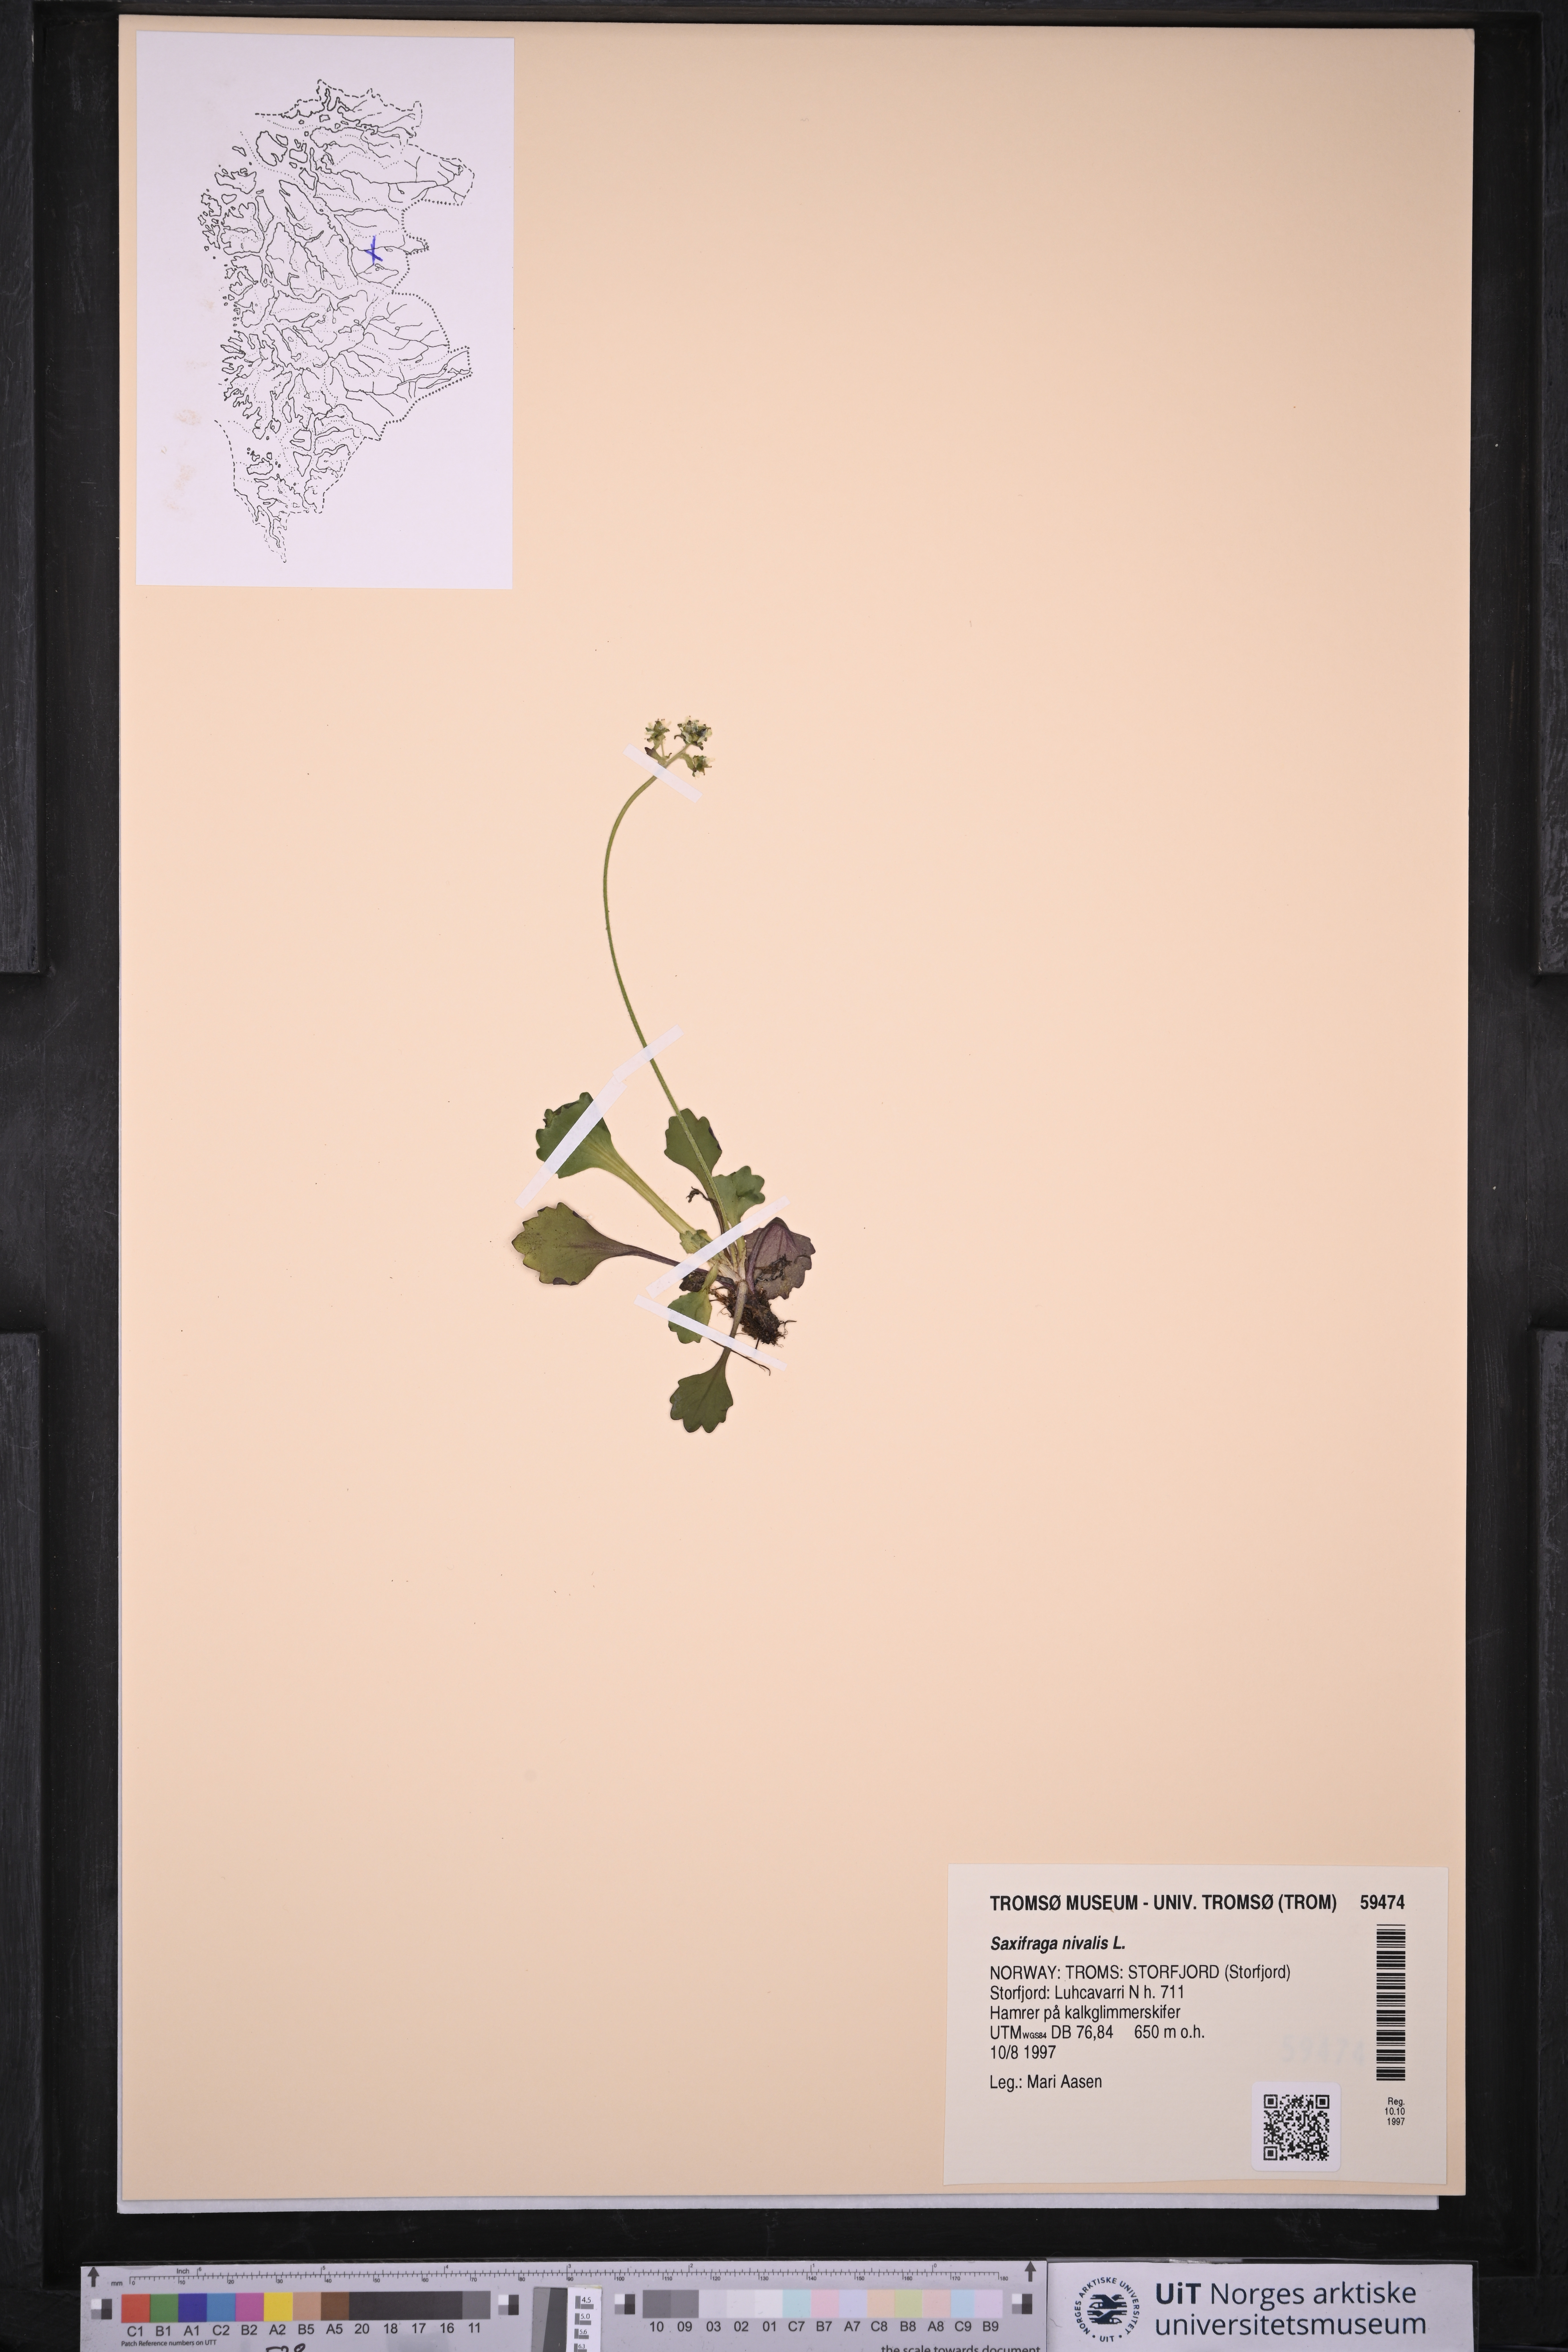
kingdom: Plantae
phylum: Tracheophyta
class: Magnoliopsida
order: Saxifragales
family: Saxifragaceae
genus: Micranthes
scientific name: Micranthes nivalis
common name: Alpine saxifrage
